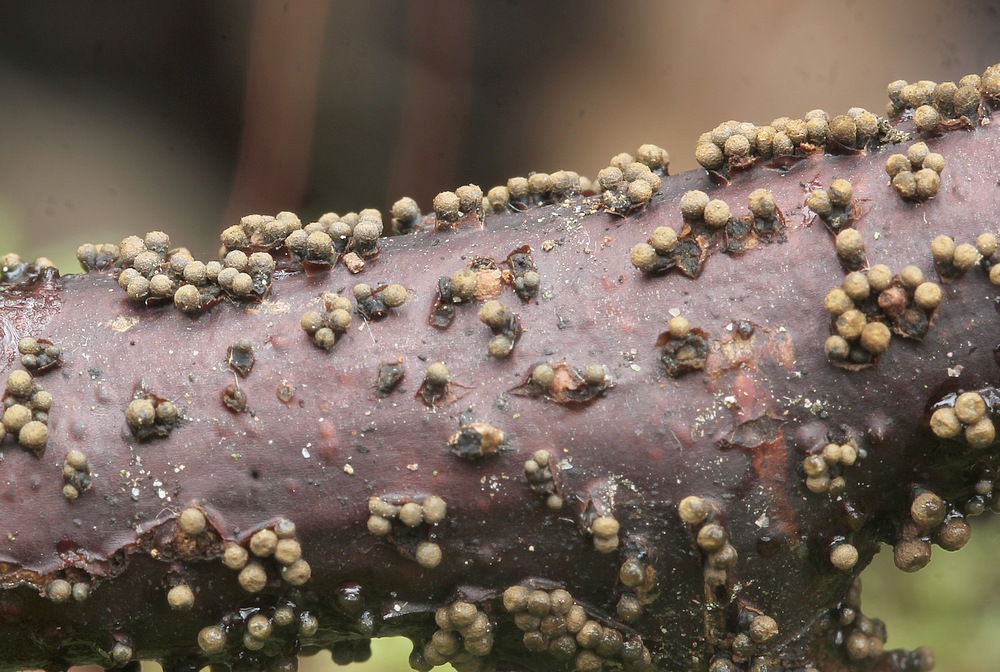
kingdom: Fungi
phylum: Ascomycota
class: Leotiomycetes
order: Helotiales
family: Godroniaceae
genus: Godronia
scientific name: Godronia uberiformis
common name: solbær-urneskive
